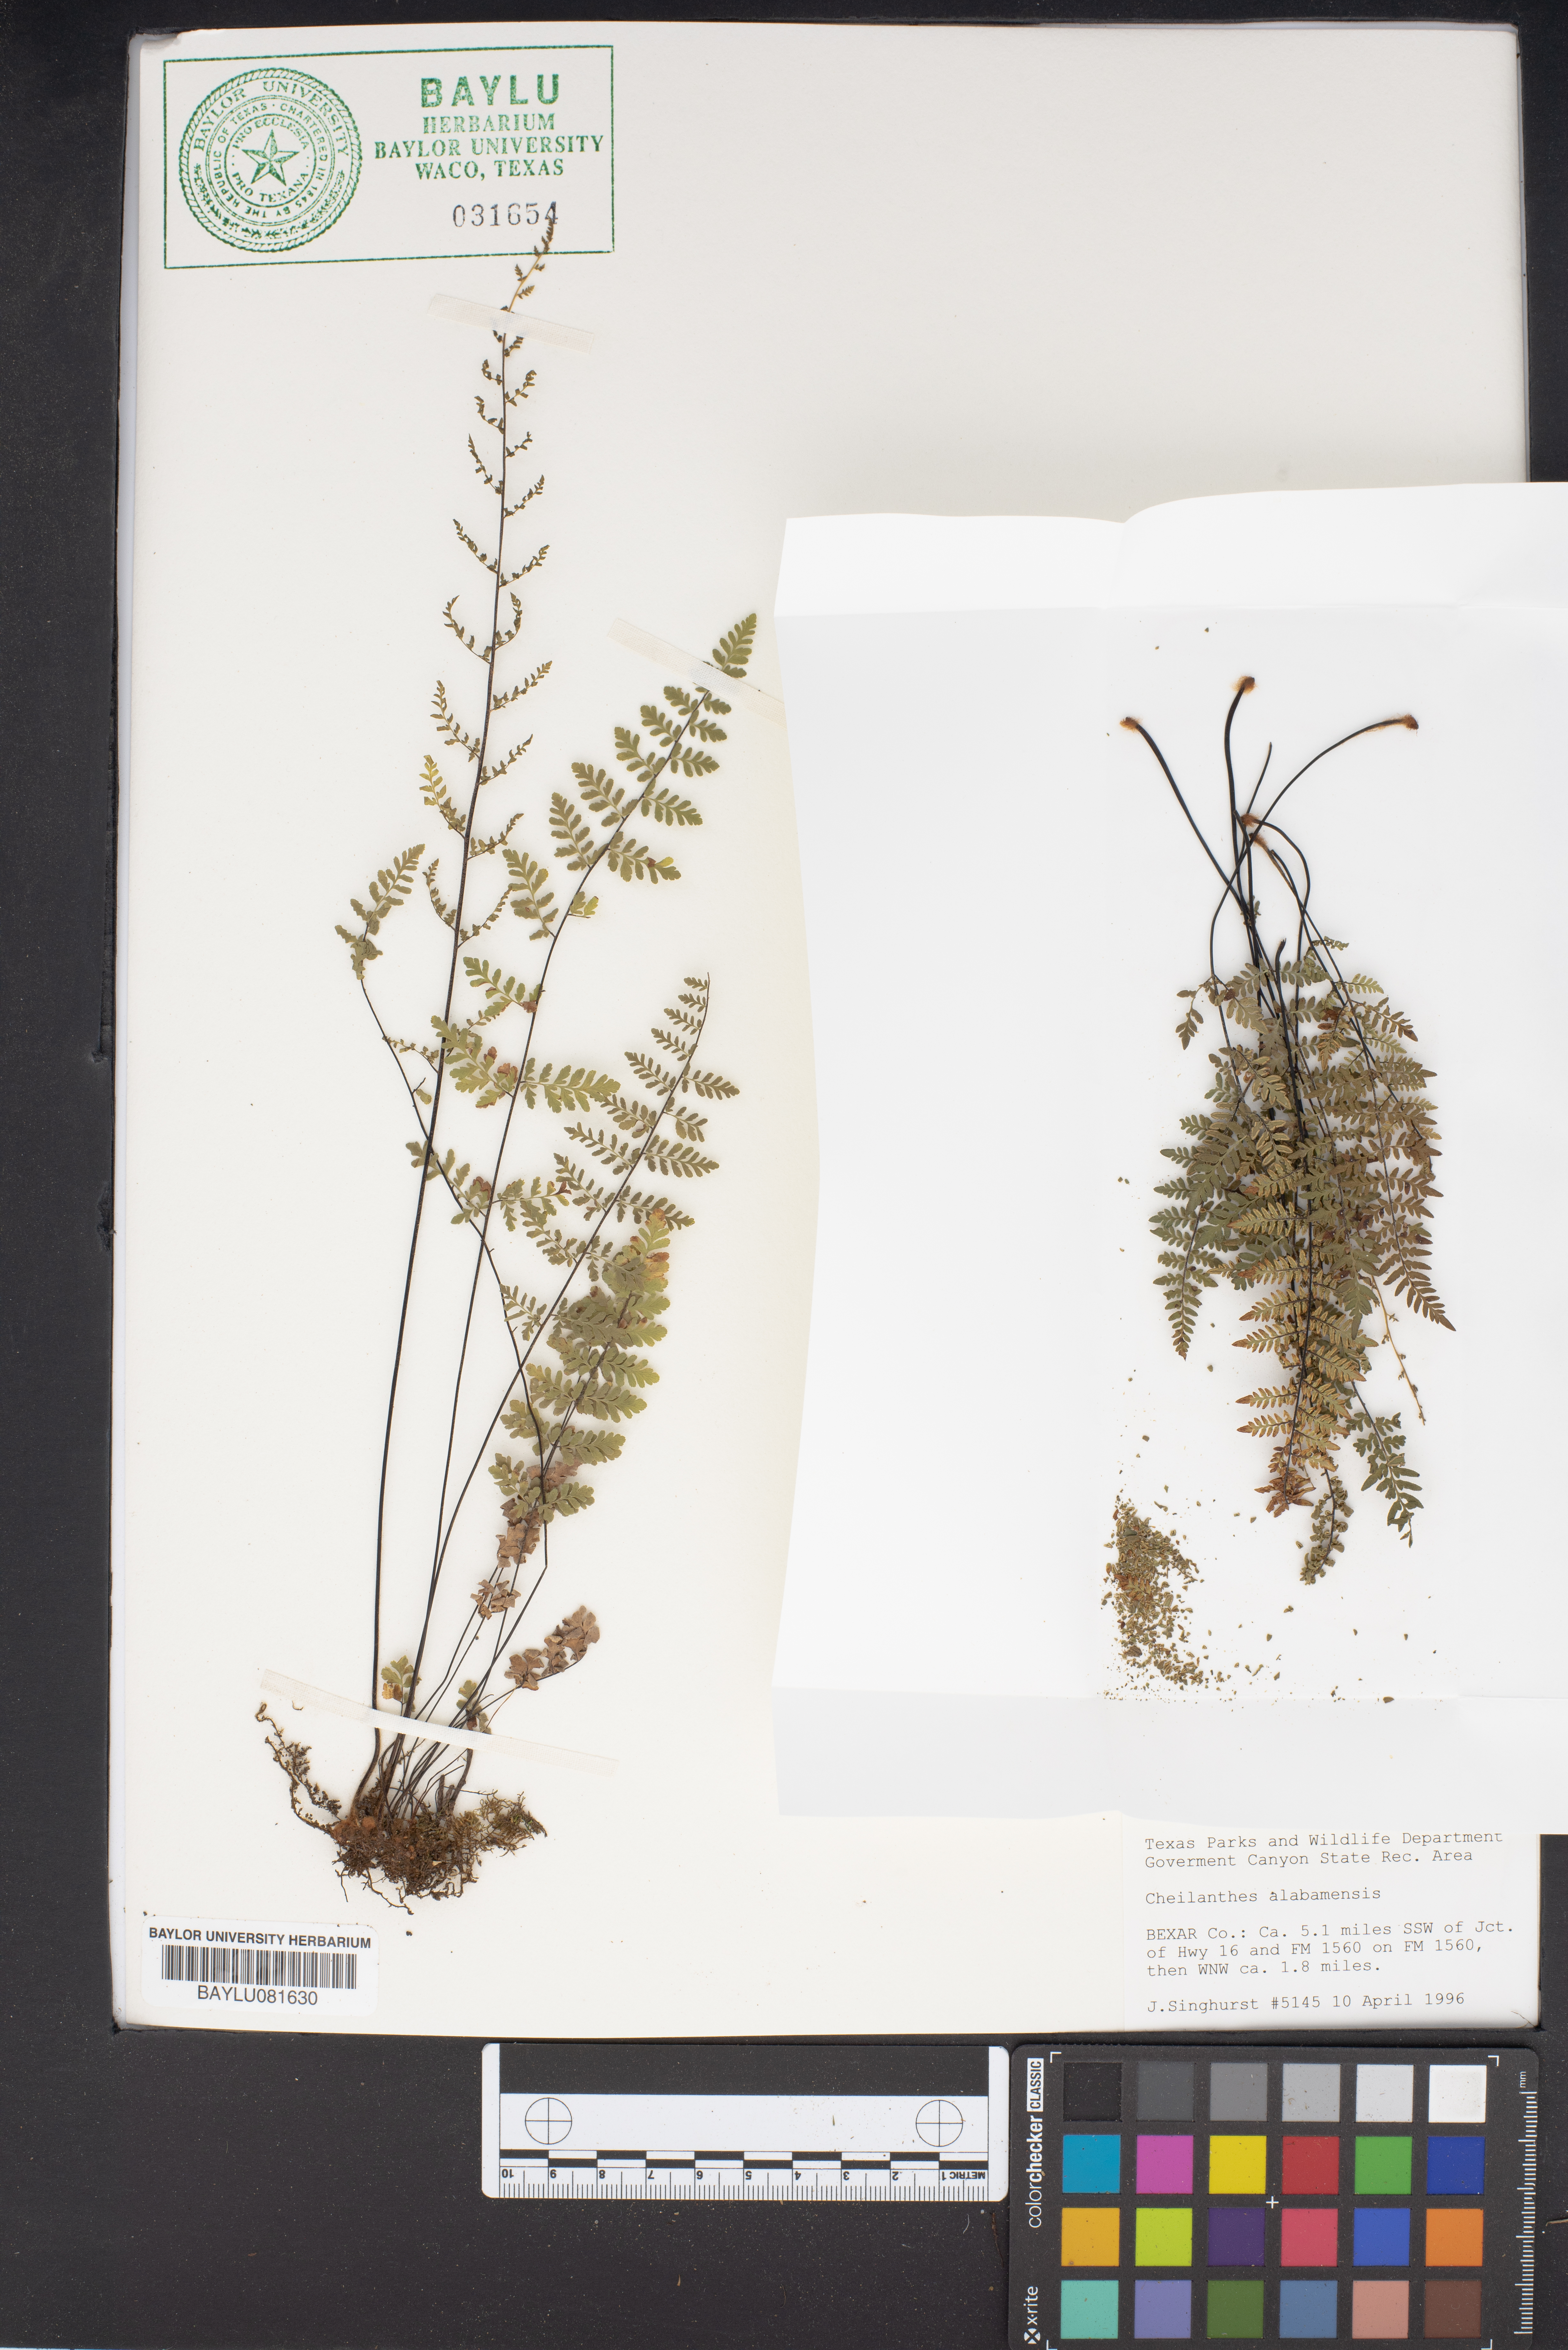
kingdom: Plantae
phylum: Tracheophyta
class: Polypodiopsida
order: Polypodiales
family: Pteridaceae
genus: Myriopteris
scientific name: Myriopteris alabamensis
